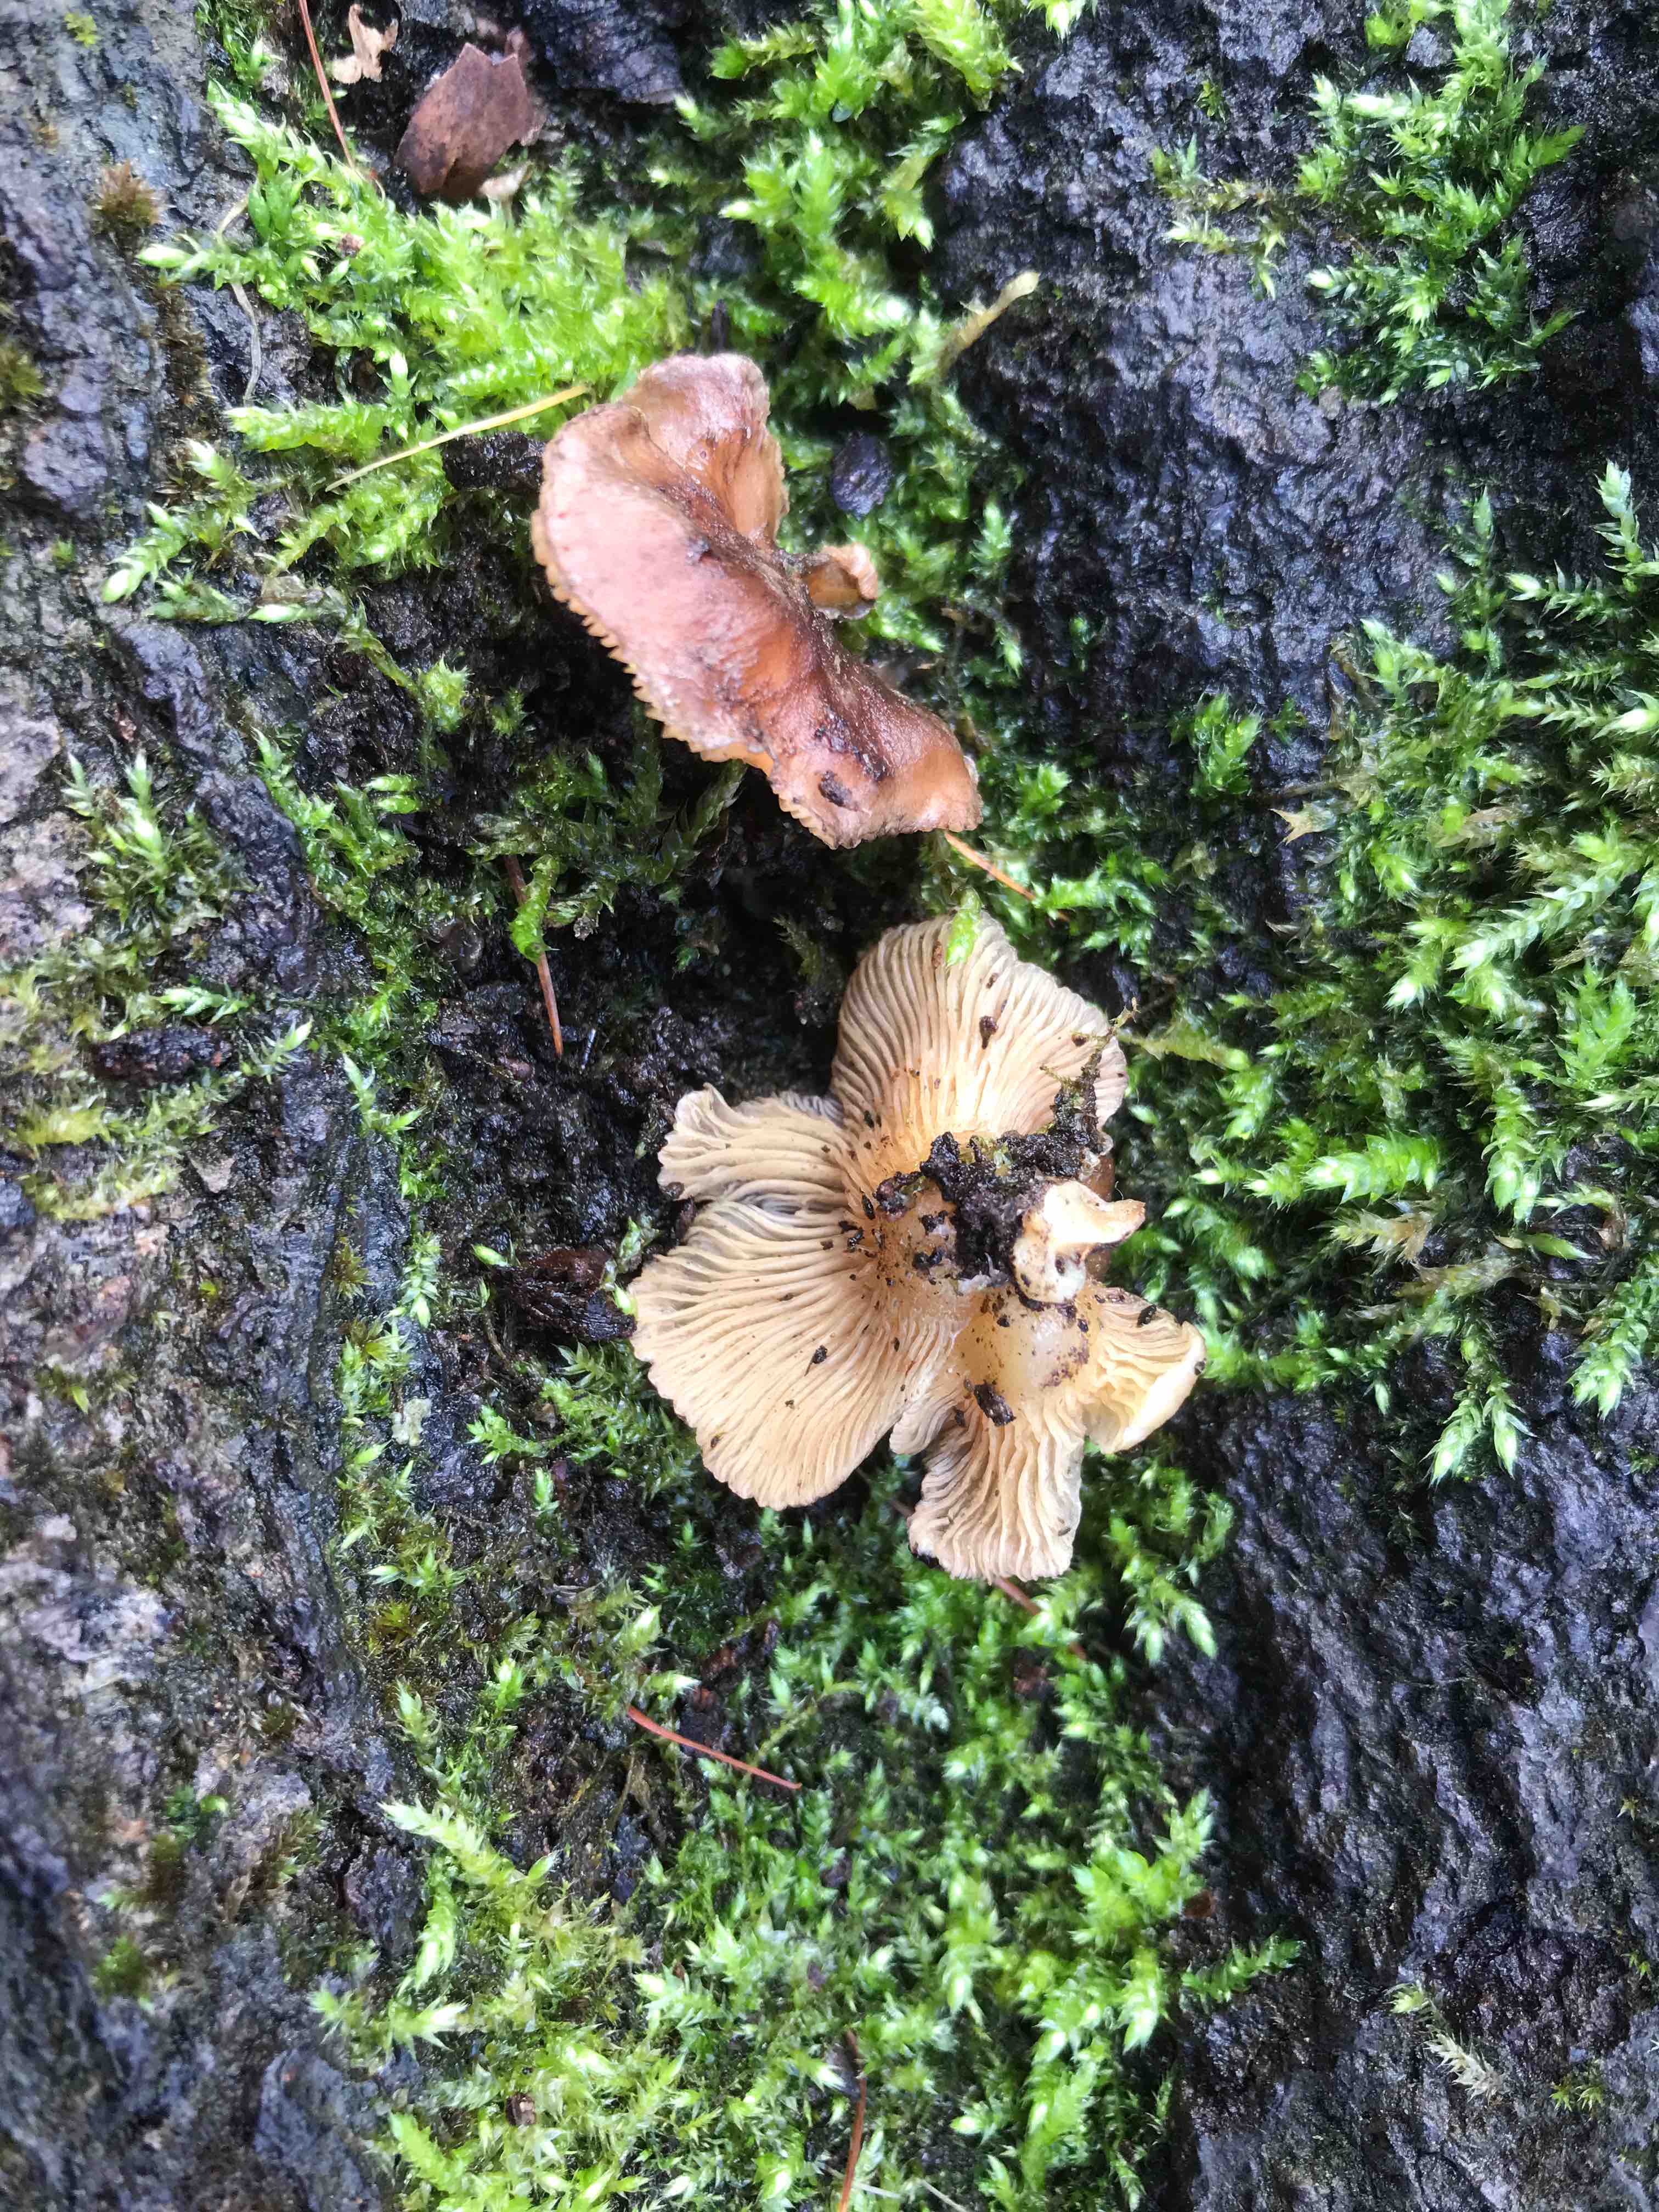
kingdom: Fungi
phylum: Basidiomycota
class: Agaricomycetes
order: Agaricales
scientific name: Agaricales
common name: champignonordenen
